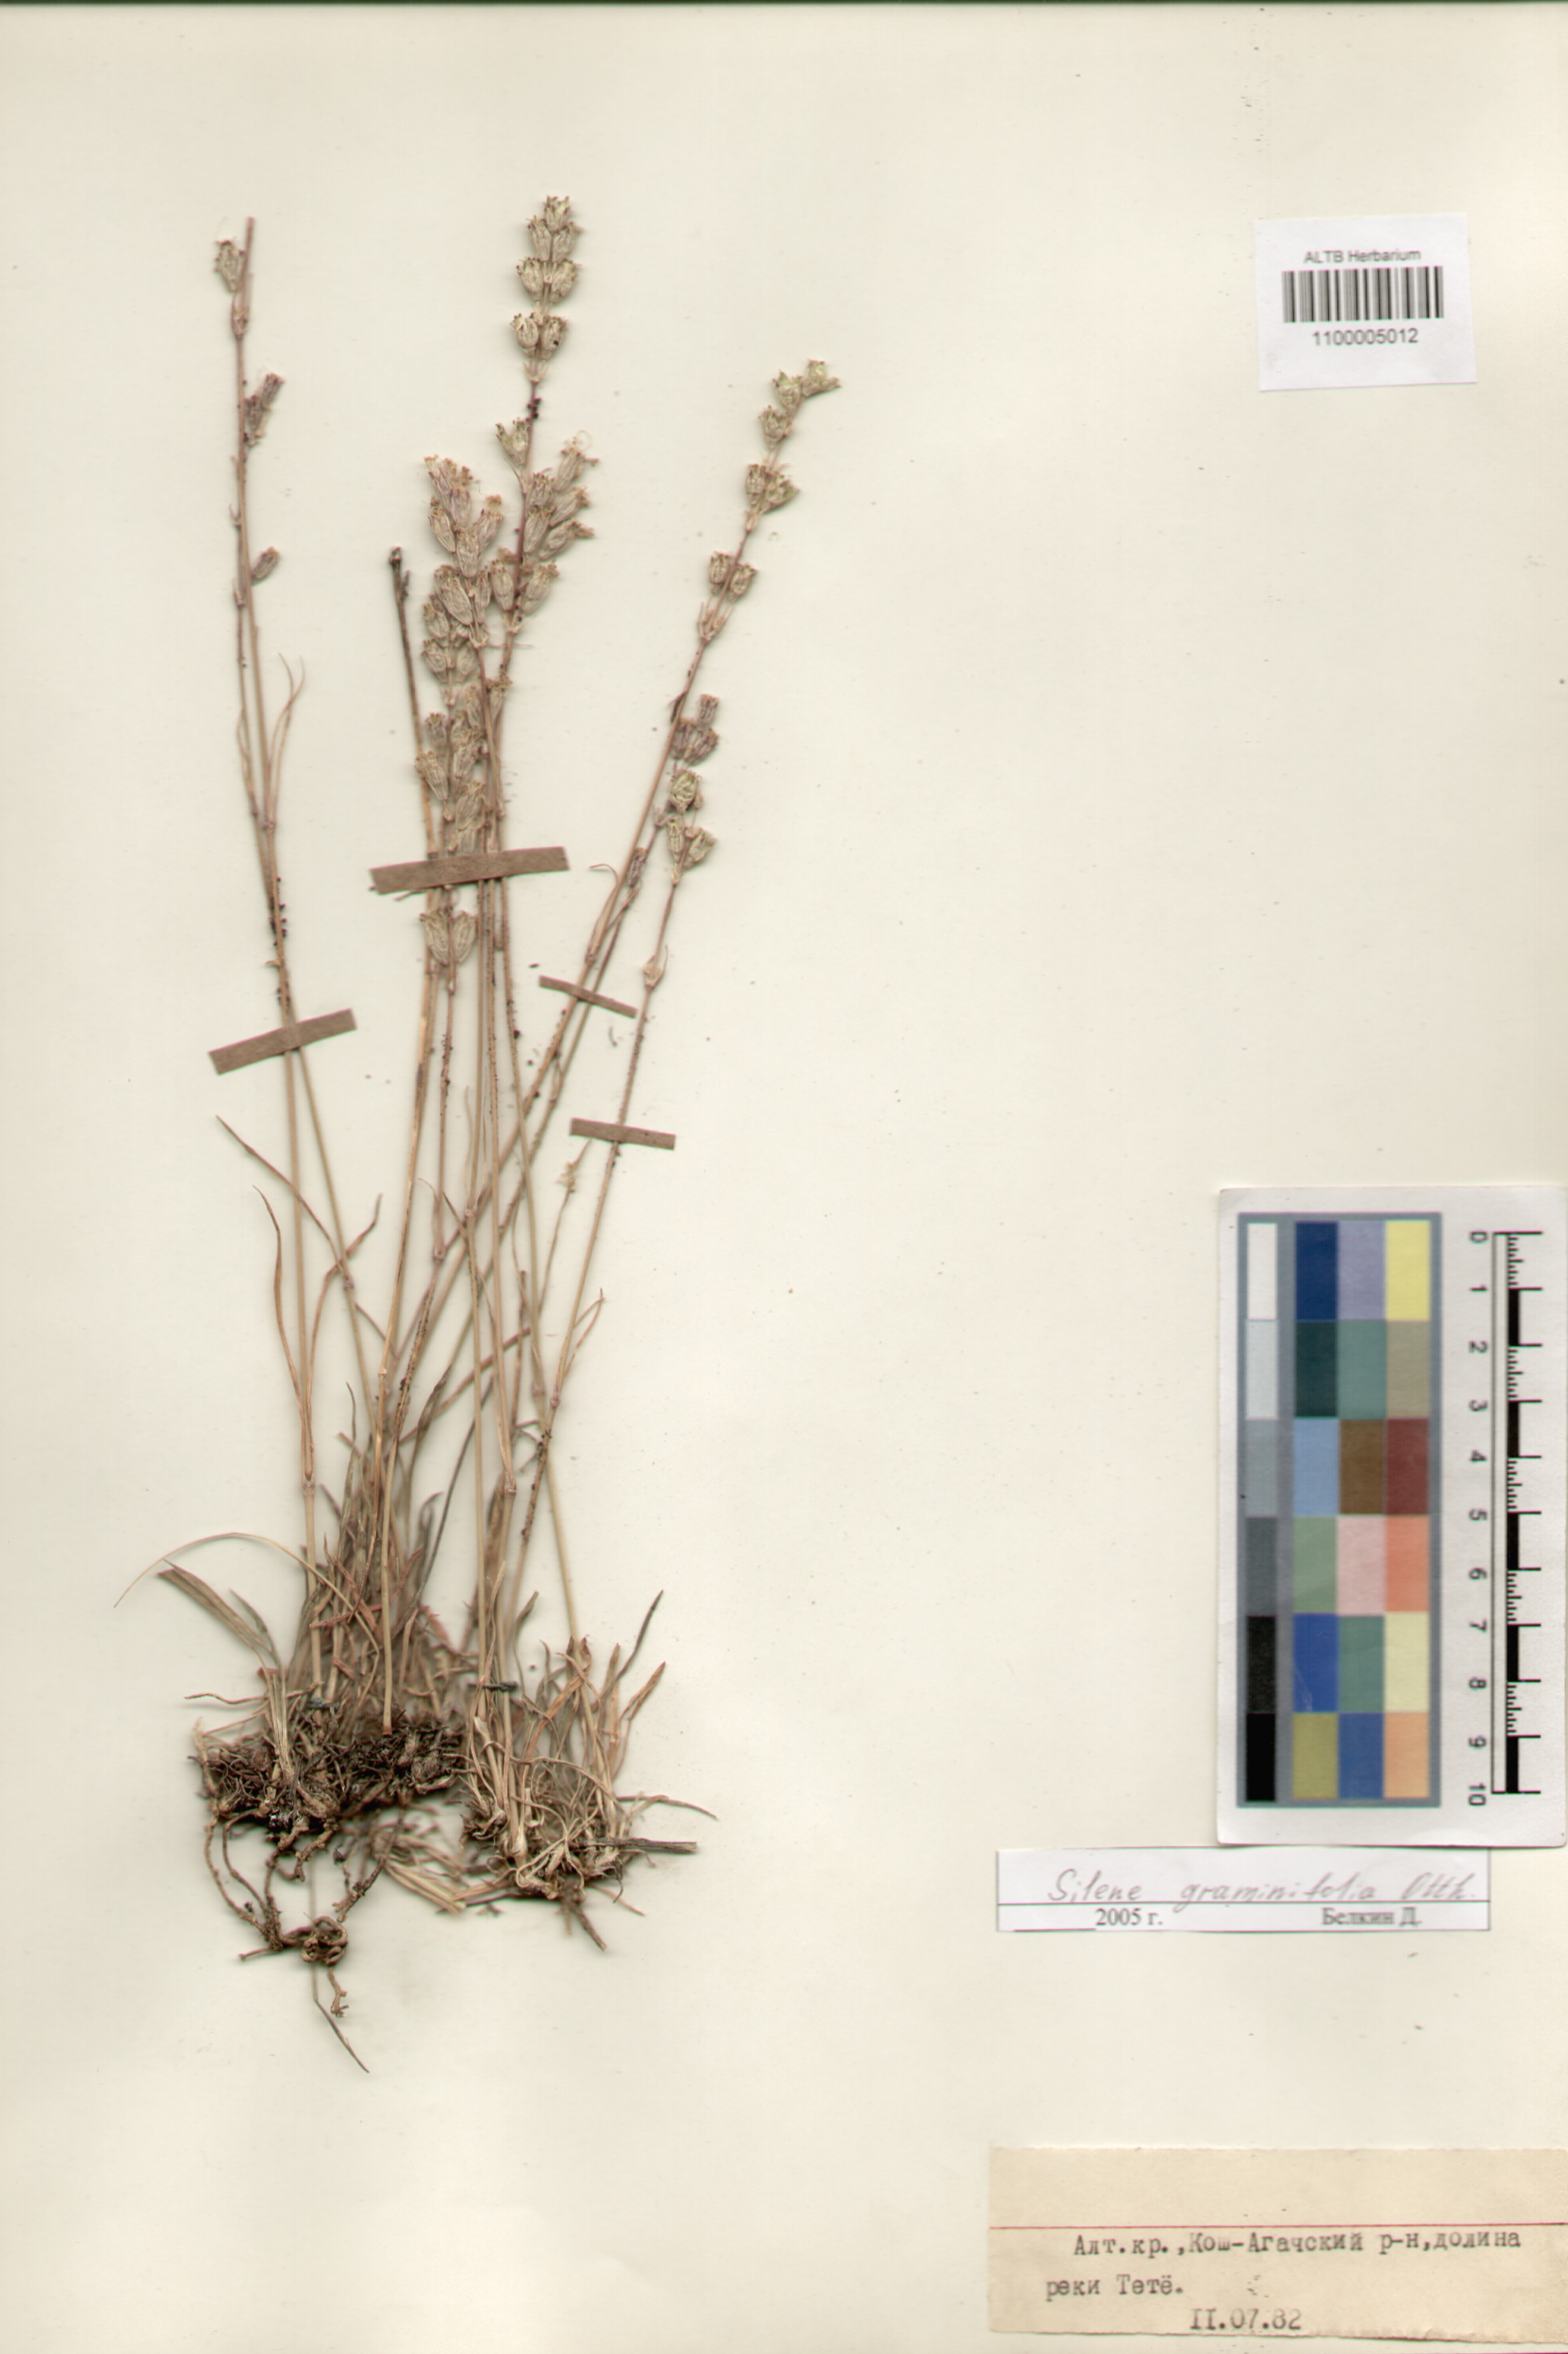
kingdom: Plantae
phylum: Tracheophyta
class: Magnoliopsida
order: Caryophyllales
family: Caryophyllaceae
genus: Silene
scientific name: Silene graminifolia
